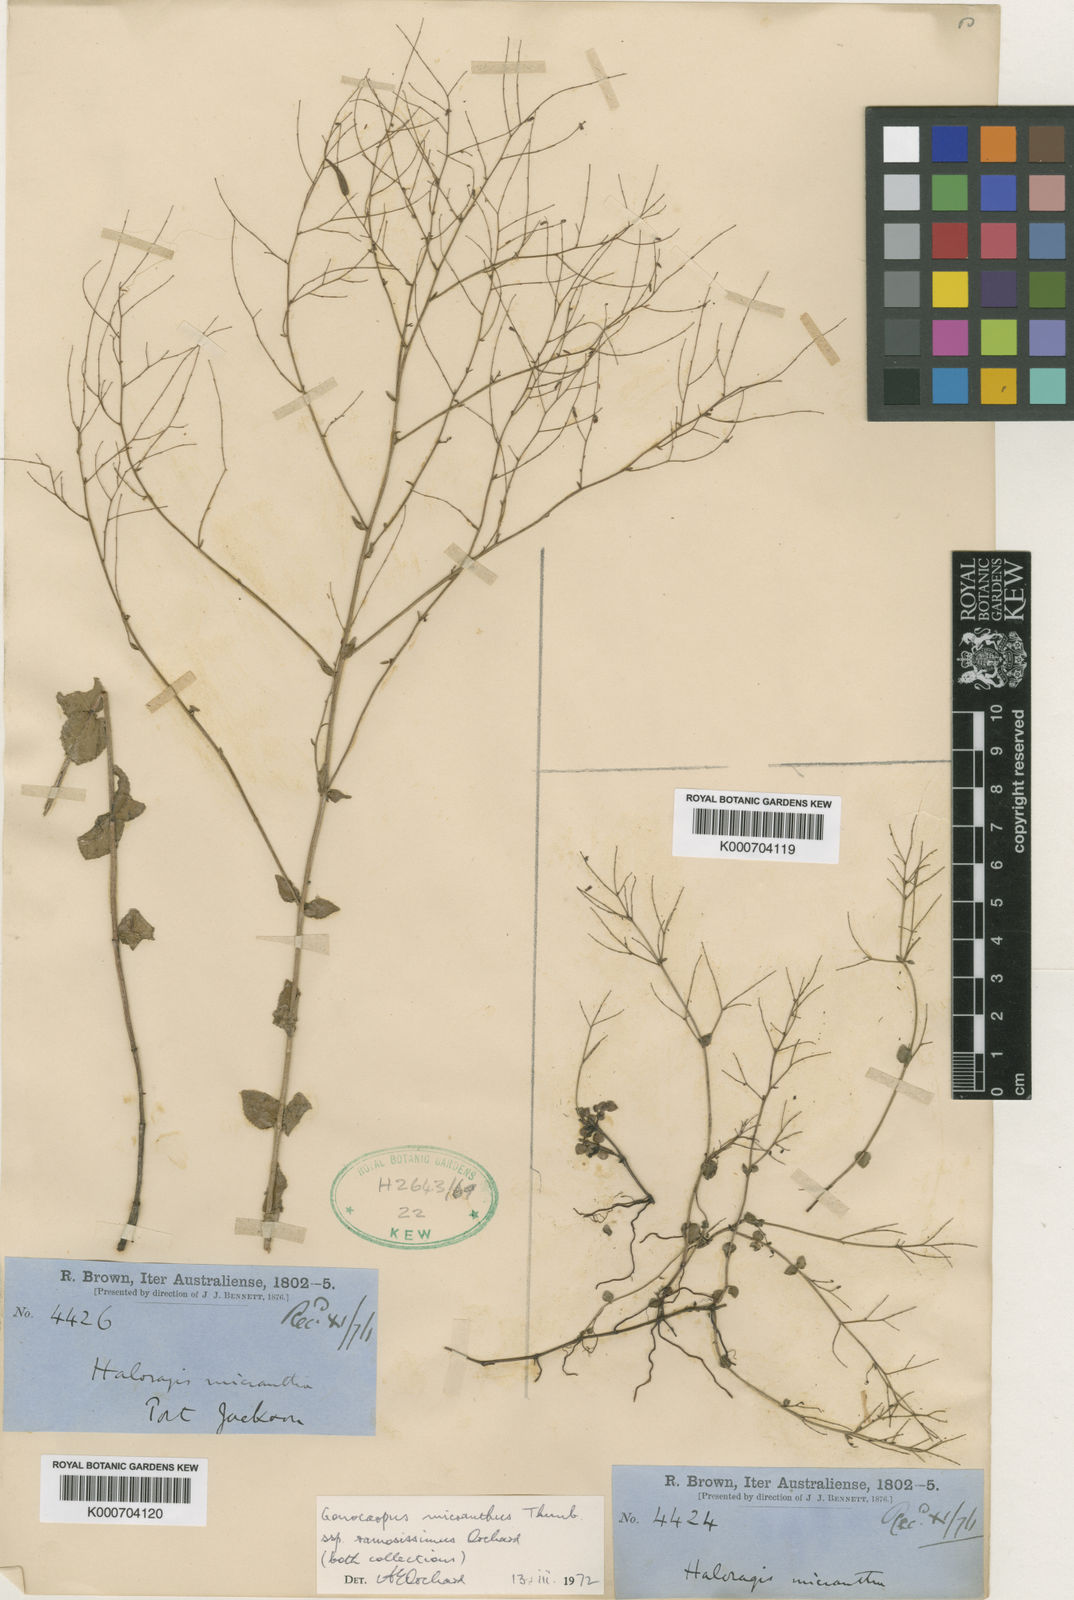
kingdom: Plantae
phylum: Tracheophyta
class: Magnoliopsida
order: Saxifragales
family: Haloragaceae
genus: Gonocarpus
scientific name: Gonocarpus micranthus
